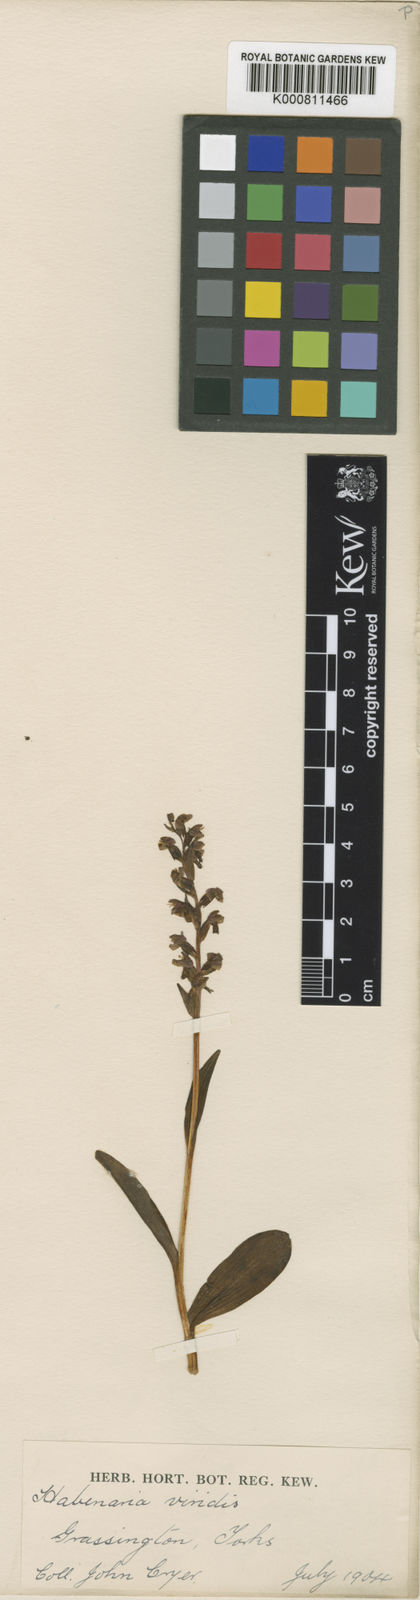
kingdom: Plantae
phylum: Tracheophyta
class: Liliopsida
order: Asparagales
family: Orchidaceae
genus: Dactylorhiza
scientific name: Dactylorhiza viridis
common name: Longbract frog orchid
